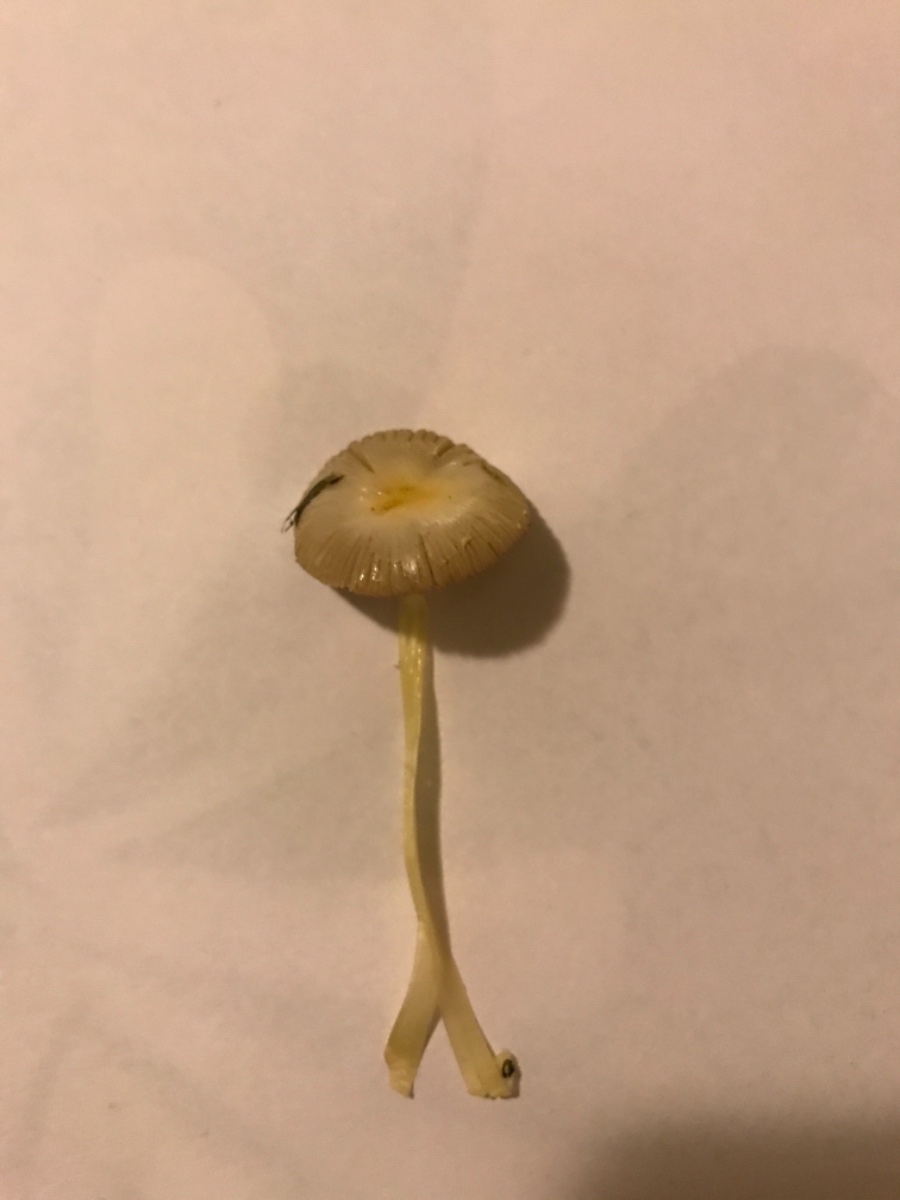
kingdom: Fungi
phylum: Basidiomycota
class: Agaricomycetes
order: Agaricales
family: Bolbitiaceae
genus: Bolbitius
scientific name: Bolbitius titubans
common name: almindelig gulhat
